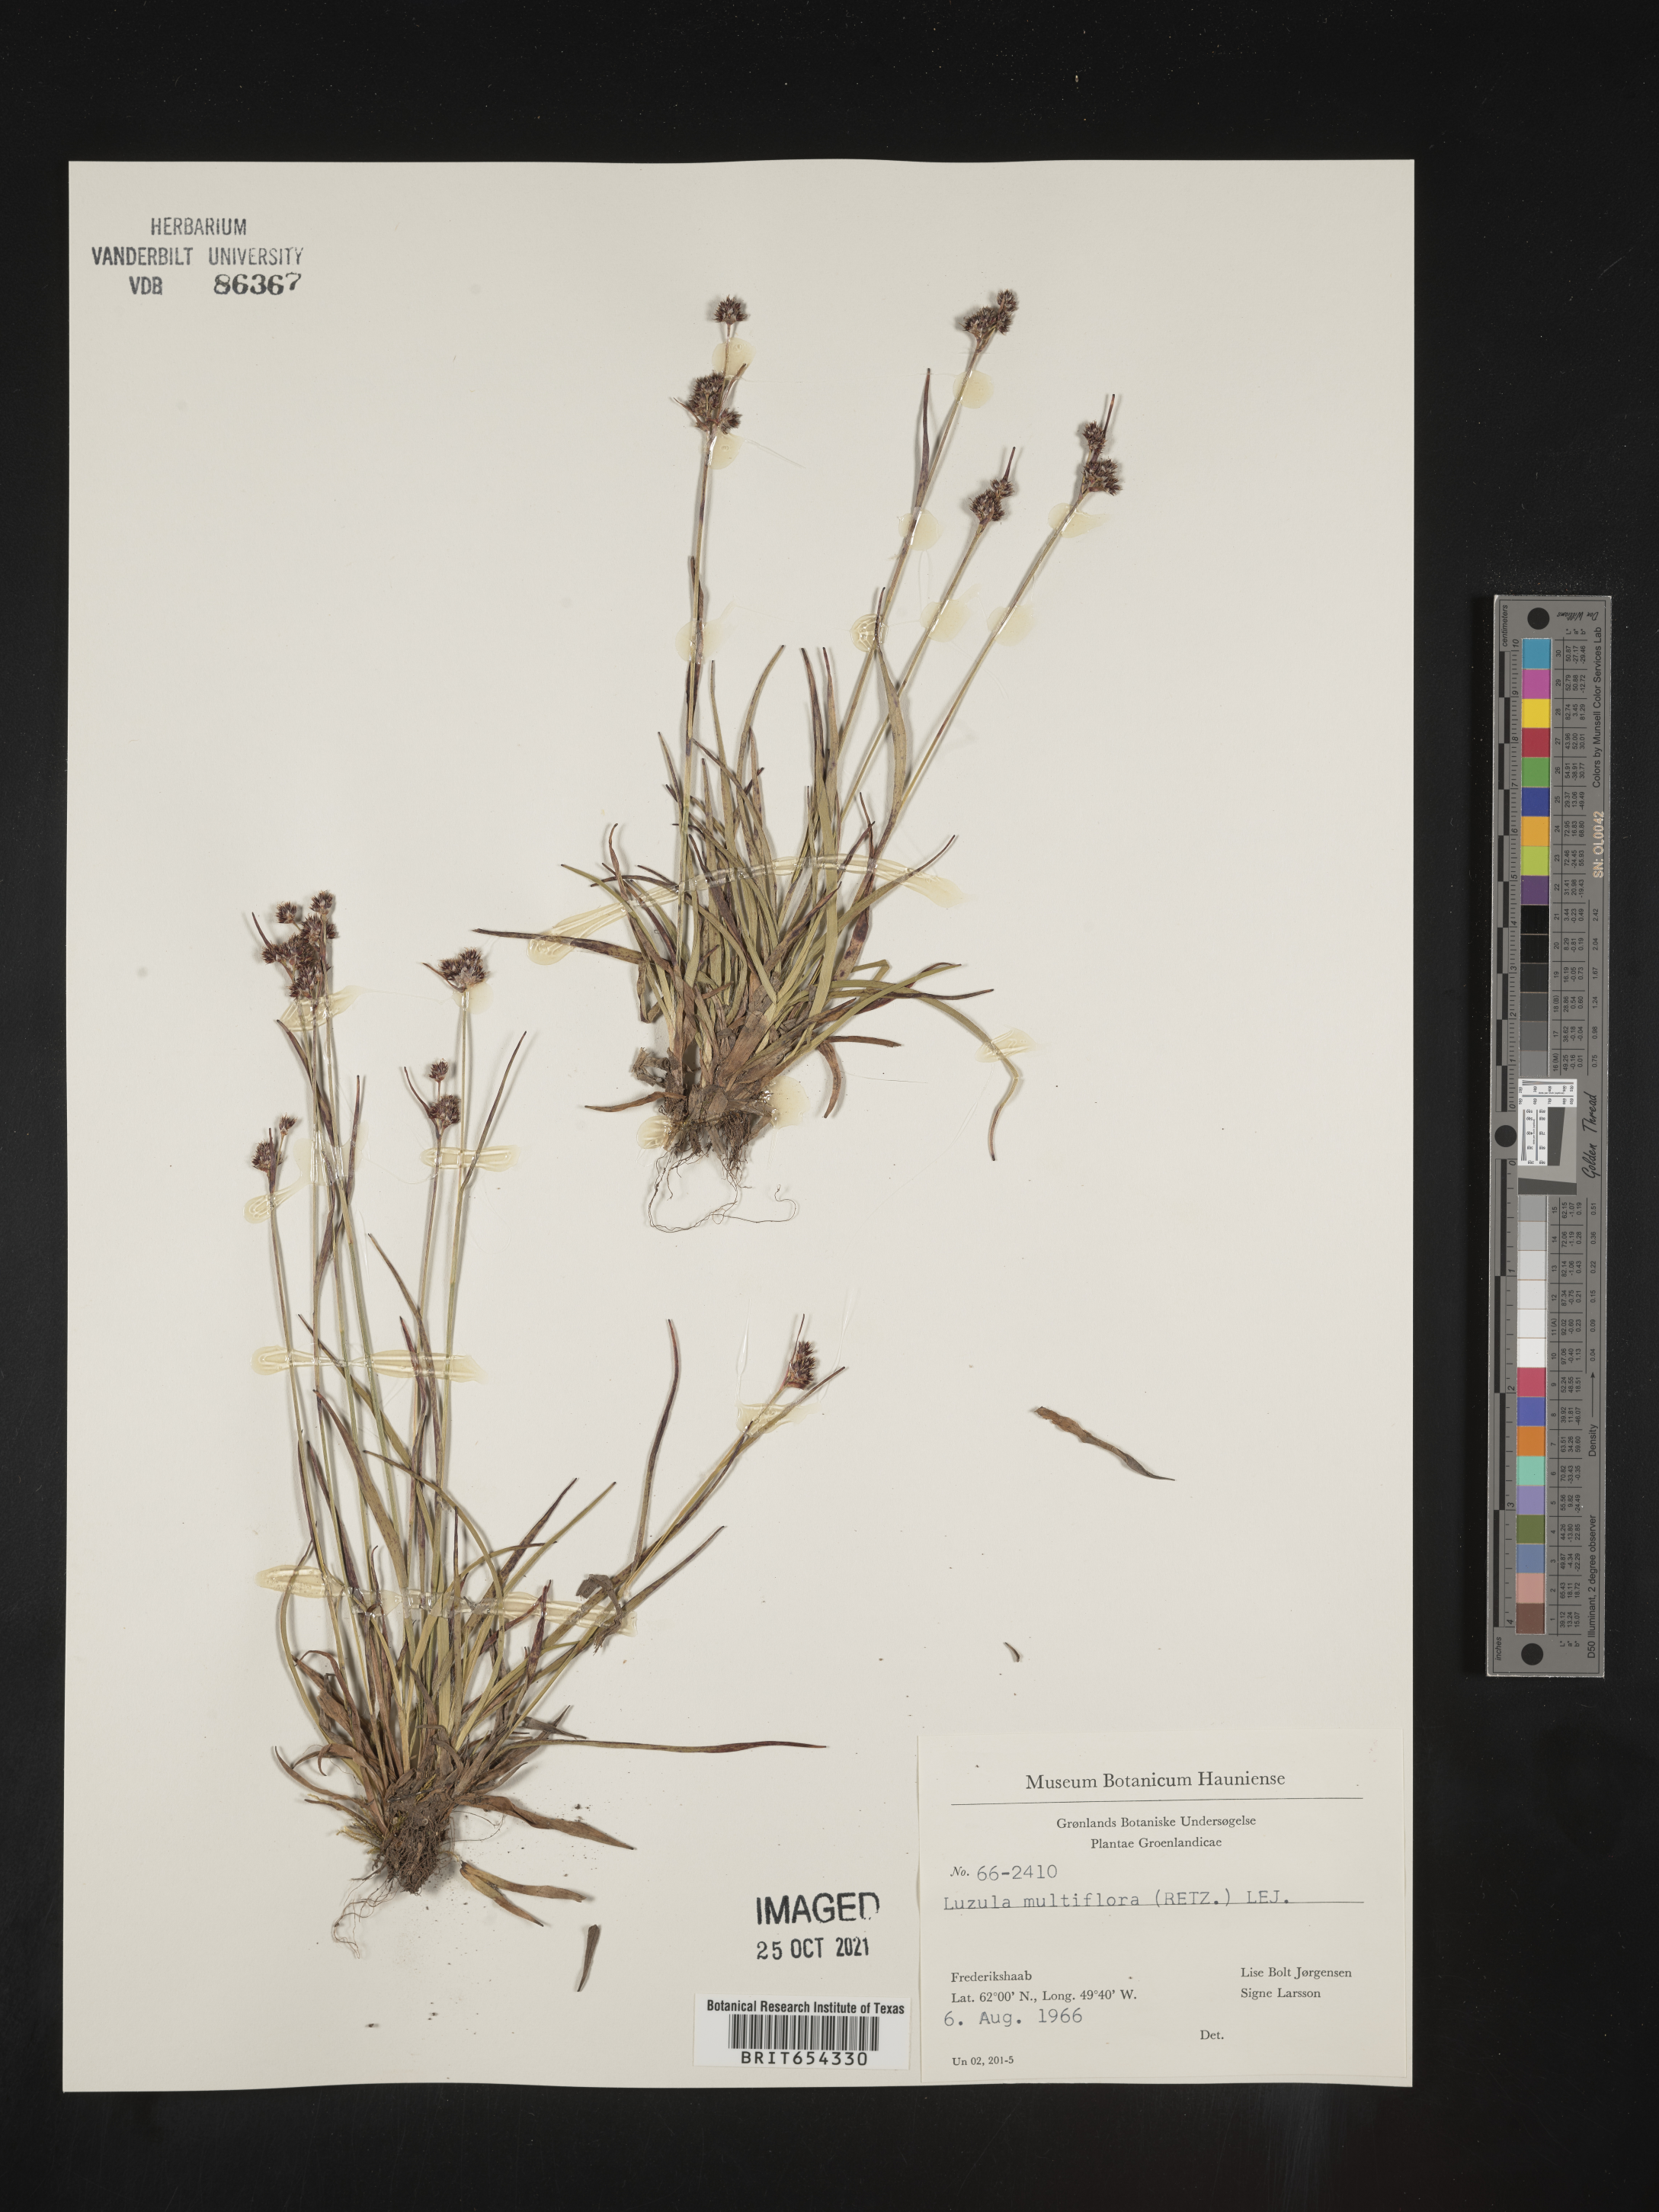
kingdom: Plantae
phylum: Tracheophyta
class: Liliopsida
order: Poales
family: Juncaceae
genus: Luzula
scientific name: Luzula
